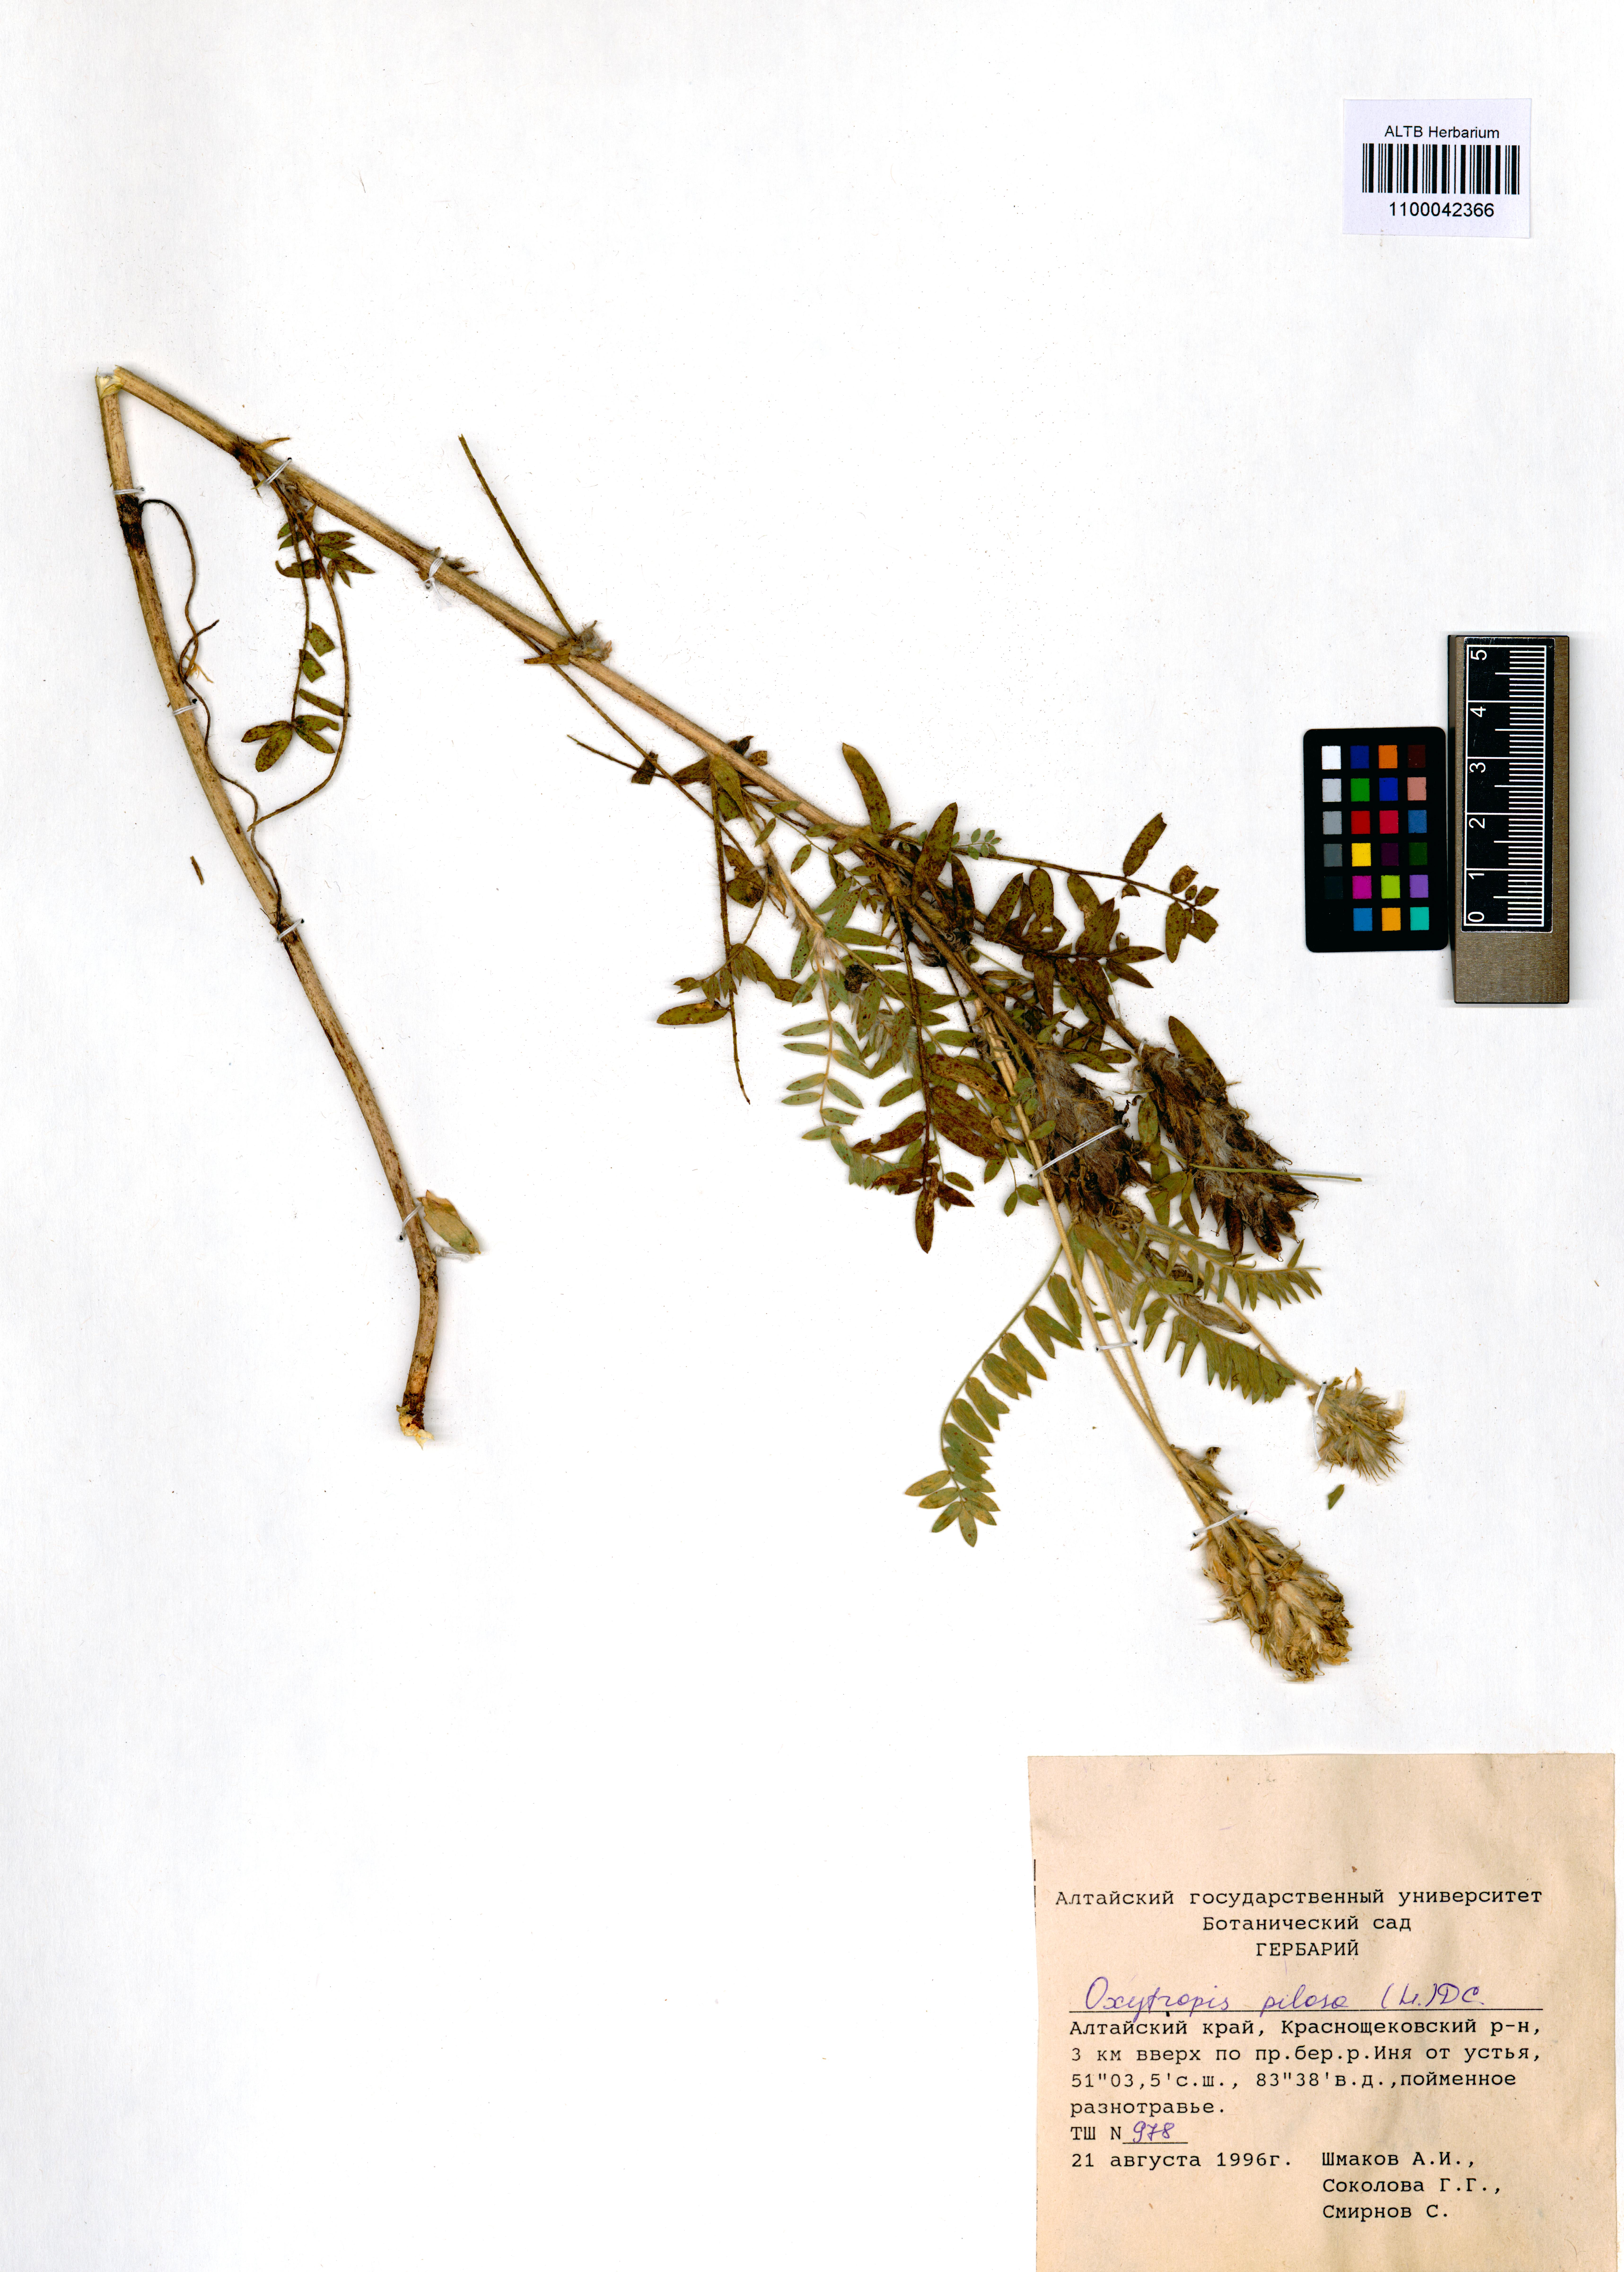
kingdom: Plantae
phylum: Tracheophyta
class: Magnoliopsida
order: Fabales
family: Fabaceae
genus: Oxytropis
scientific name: Oxytropis pilosa
